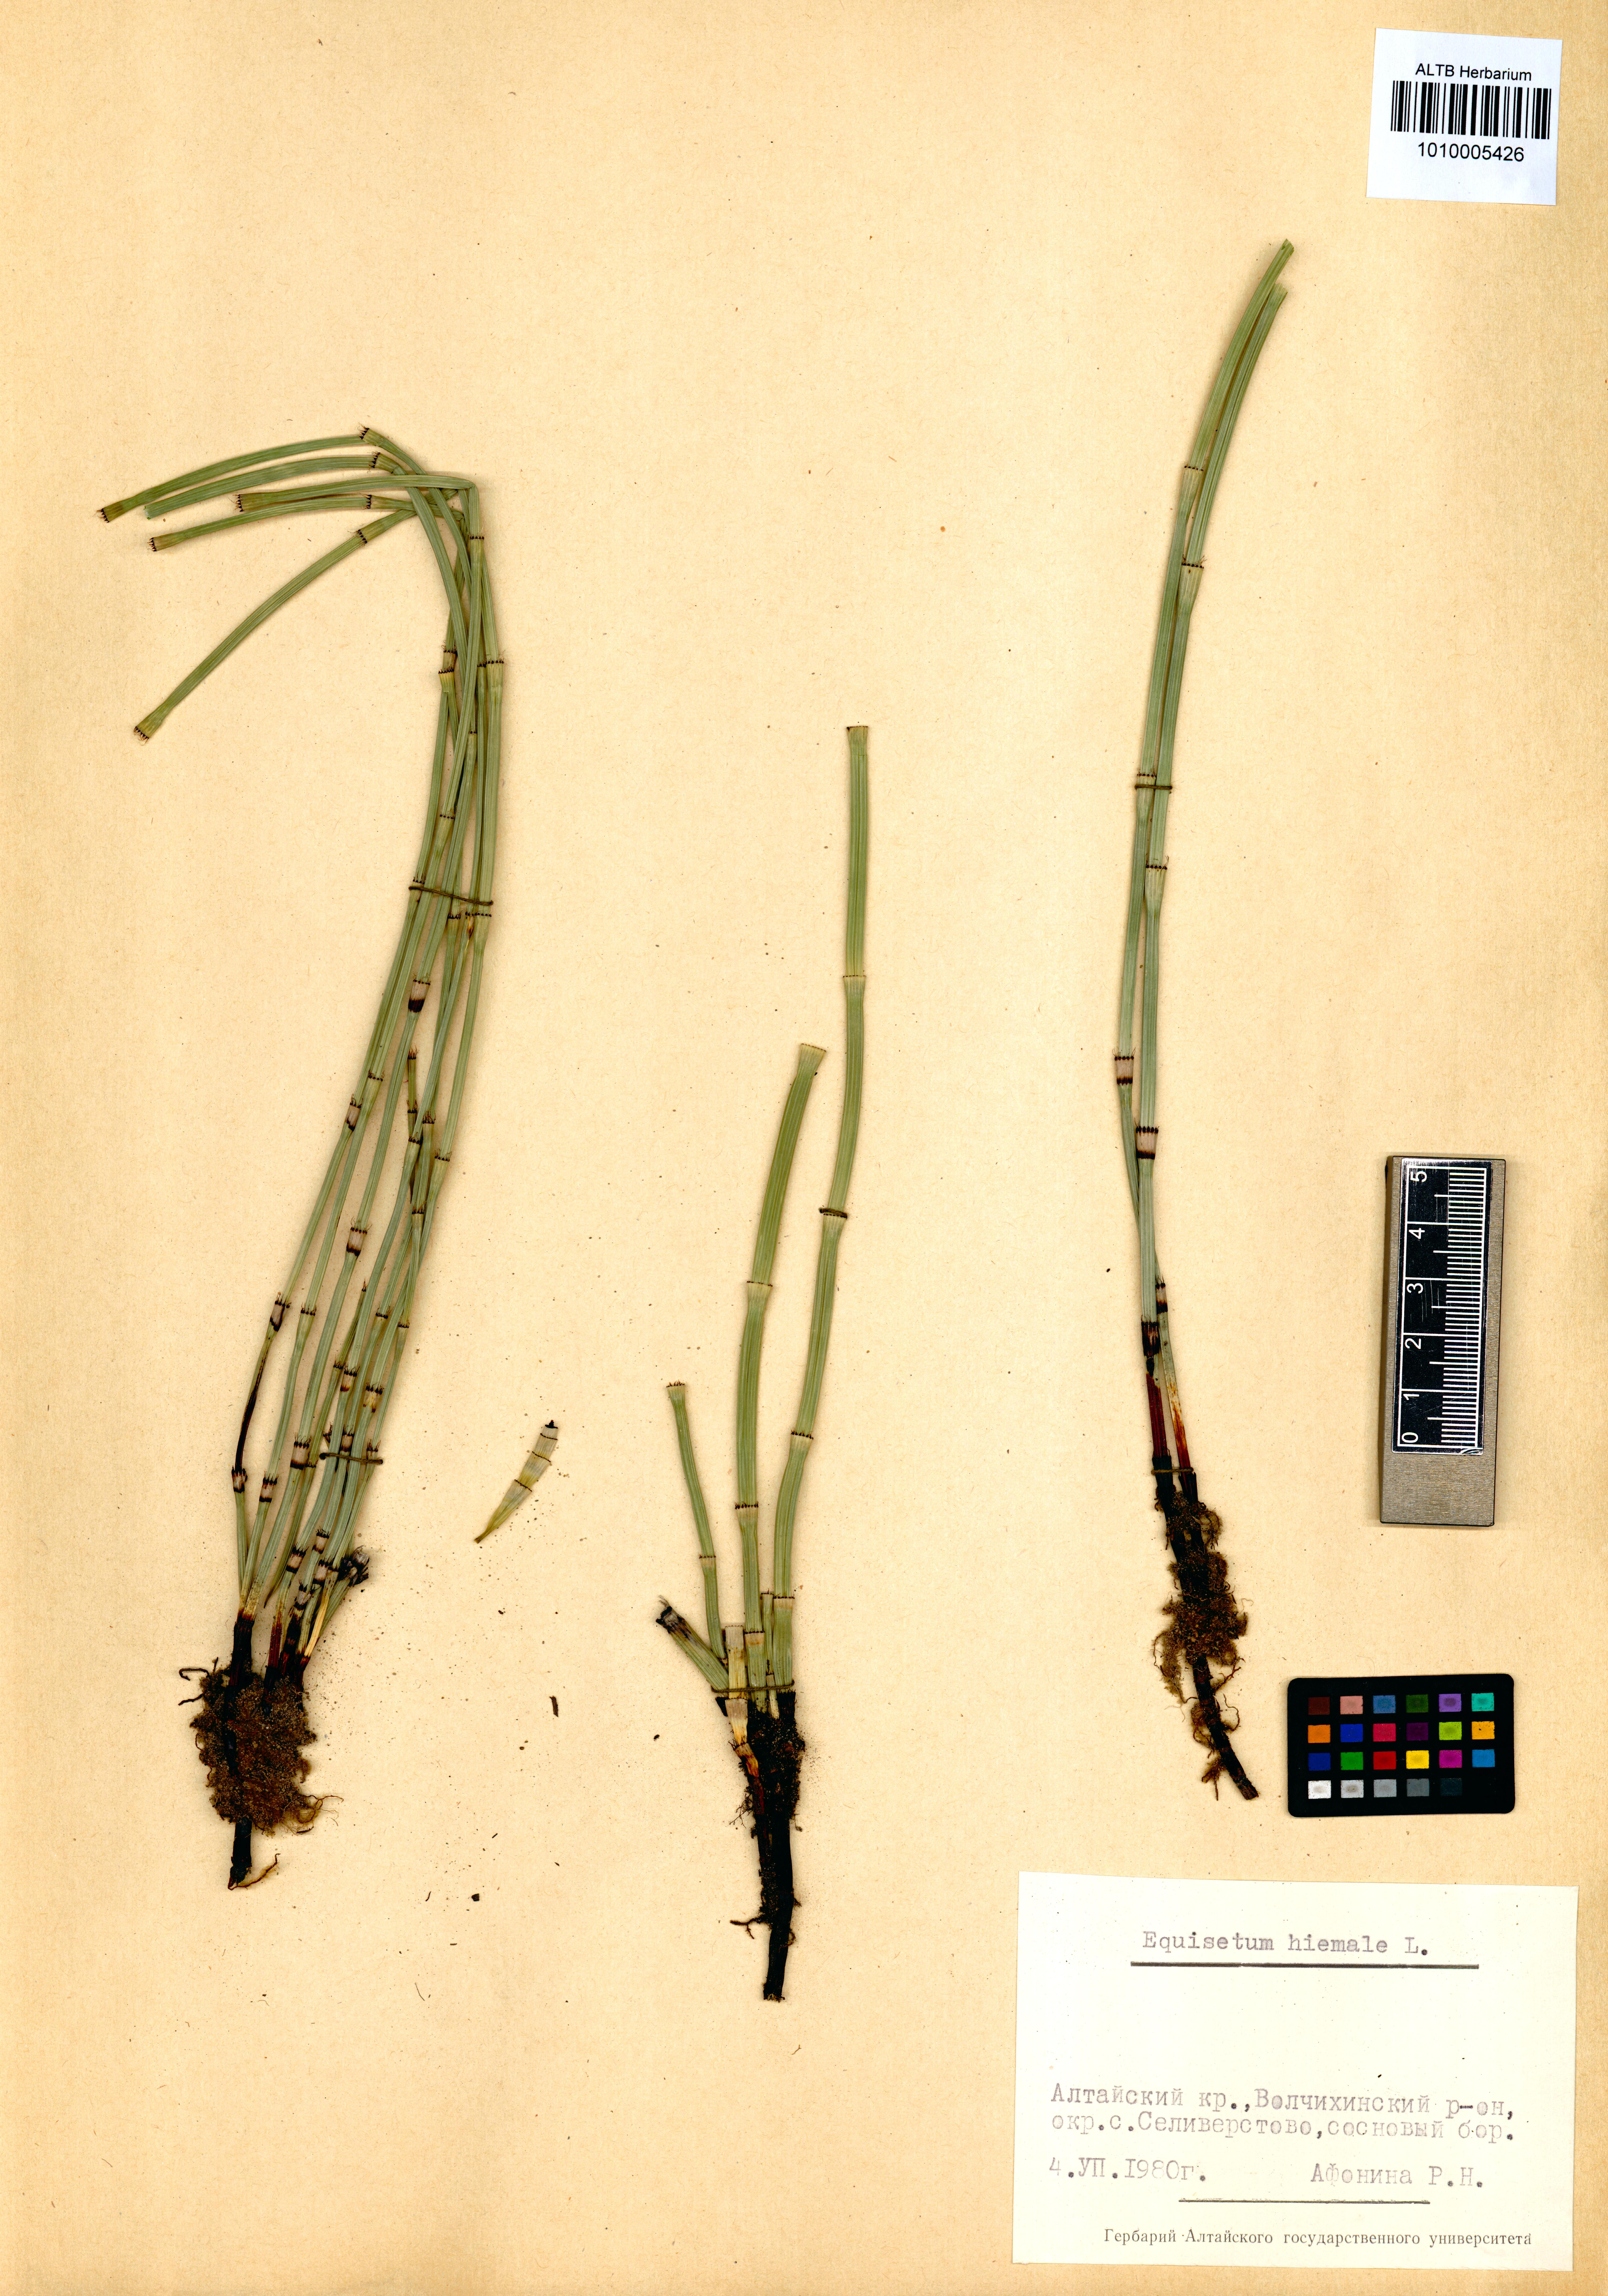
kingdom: Plantae
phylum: Tracheophyta
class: Polypodiopsida
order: Equisetales
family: Equisetaceae
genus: Equisetum
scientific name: Equisetum hyemale
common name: Rough horsetail
